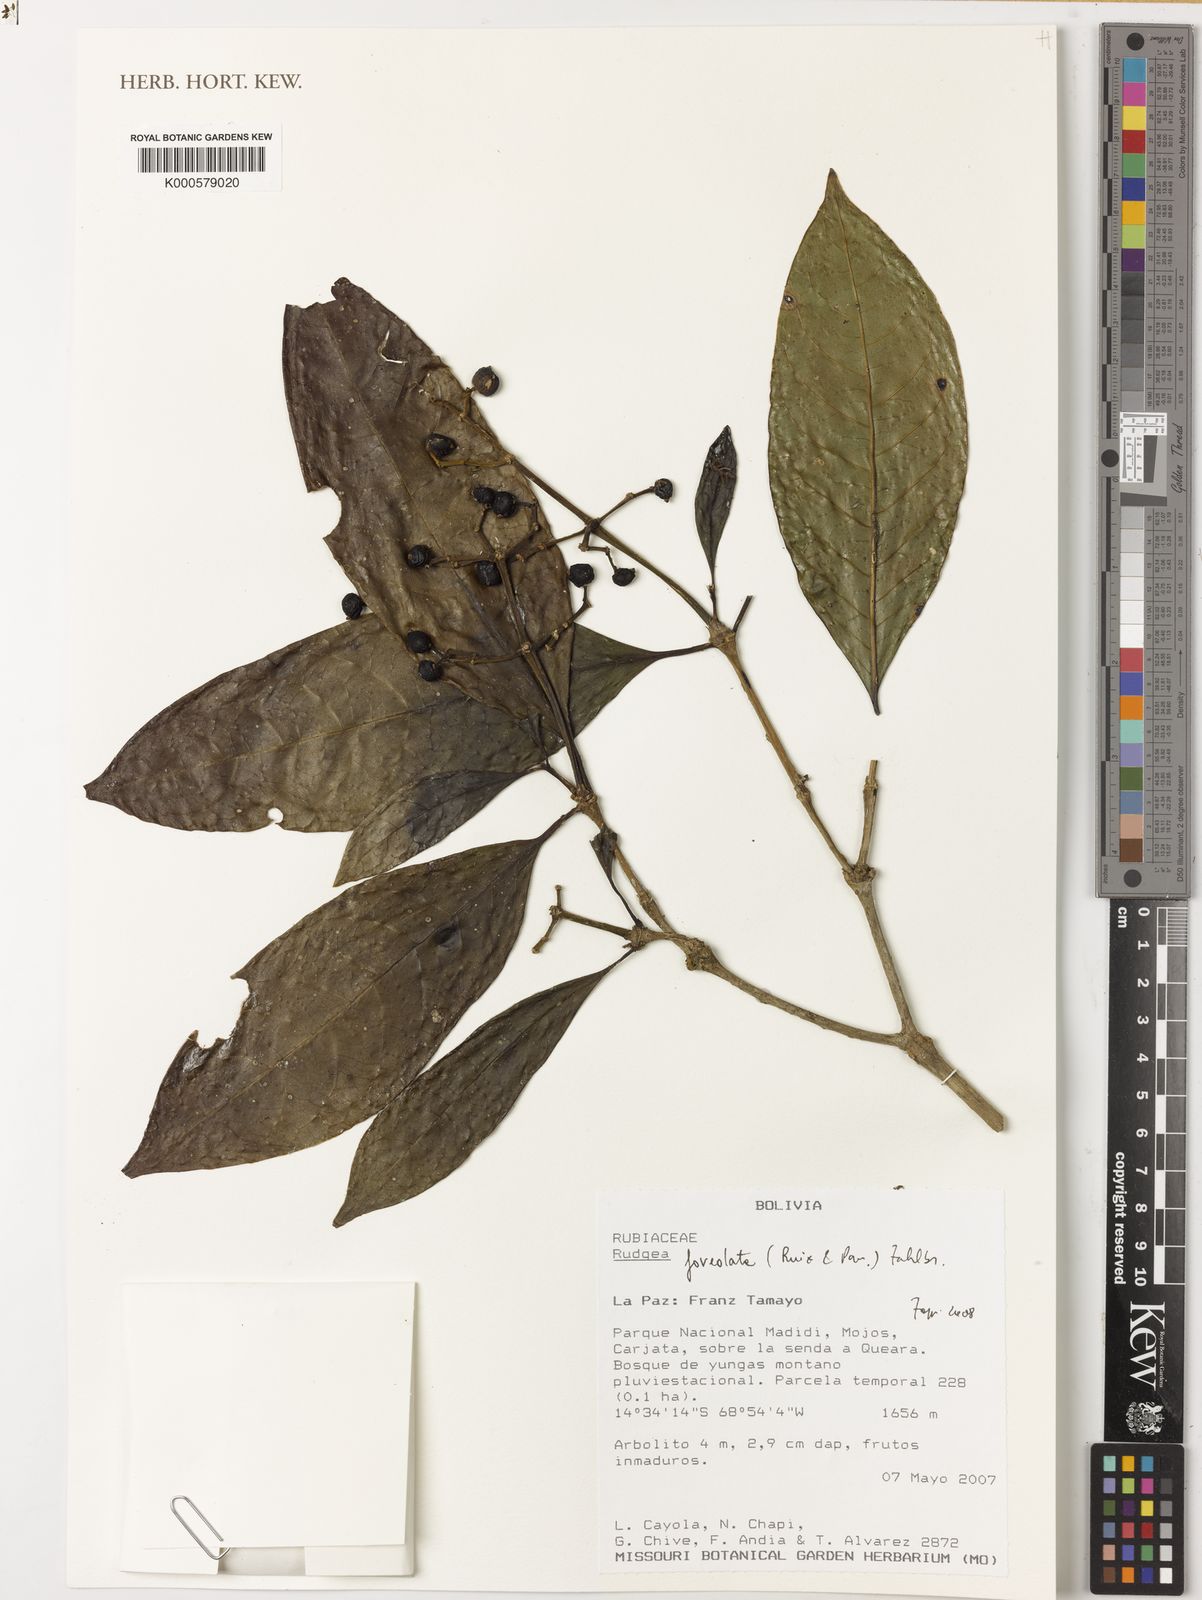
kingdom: Plantae
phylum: Tracheophyta
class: Magnoliopsida
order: Gentianales
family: Rubiaceae
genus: Rudgea
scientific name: Rudgea foveolata
